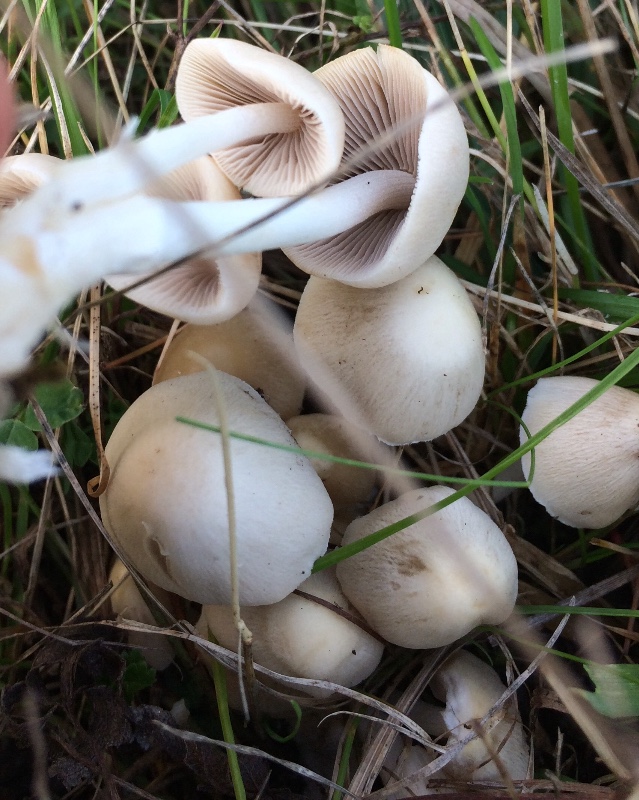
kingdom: Fungi
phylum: Basidiomycota
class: Agaricomycetes
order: Agaricales
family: Psathyrellaceae
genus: Britzelmayria
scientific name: Britzelmayria multipedata
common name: knippe-mørkhat
